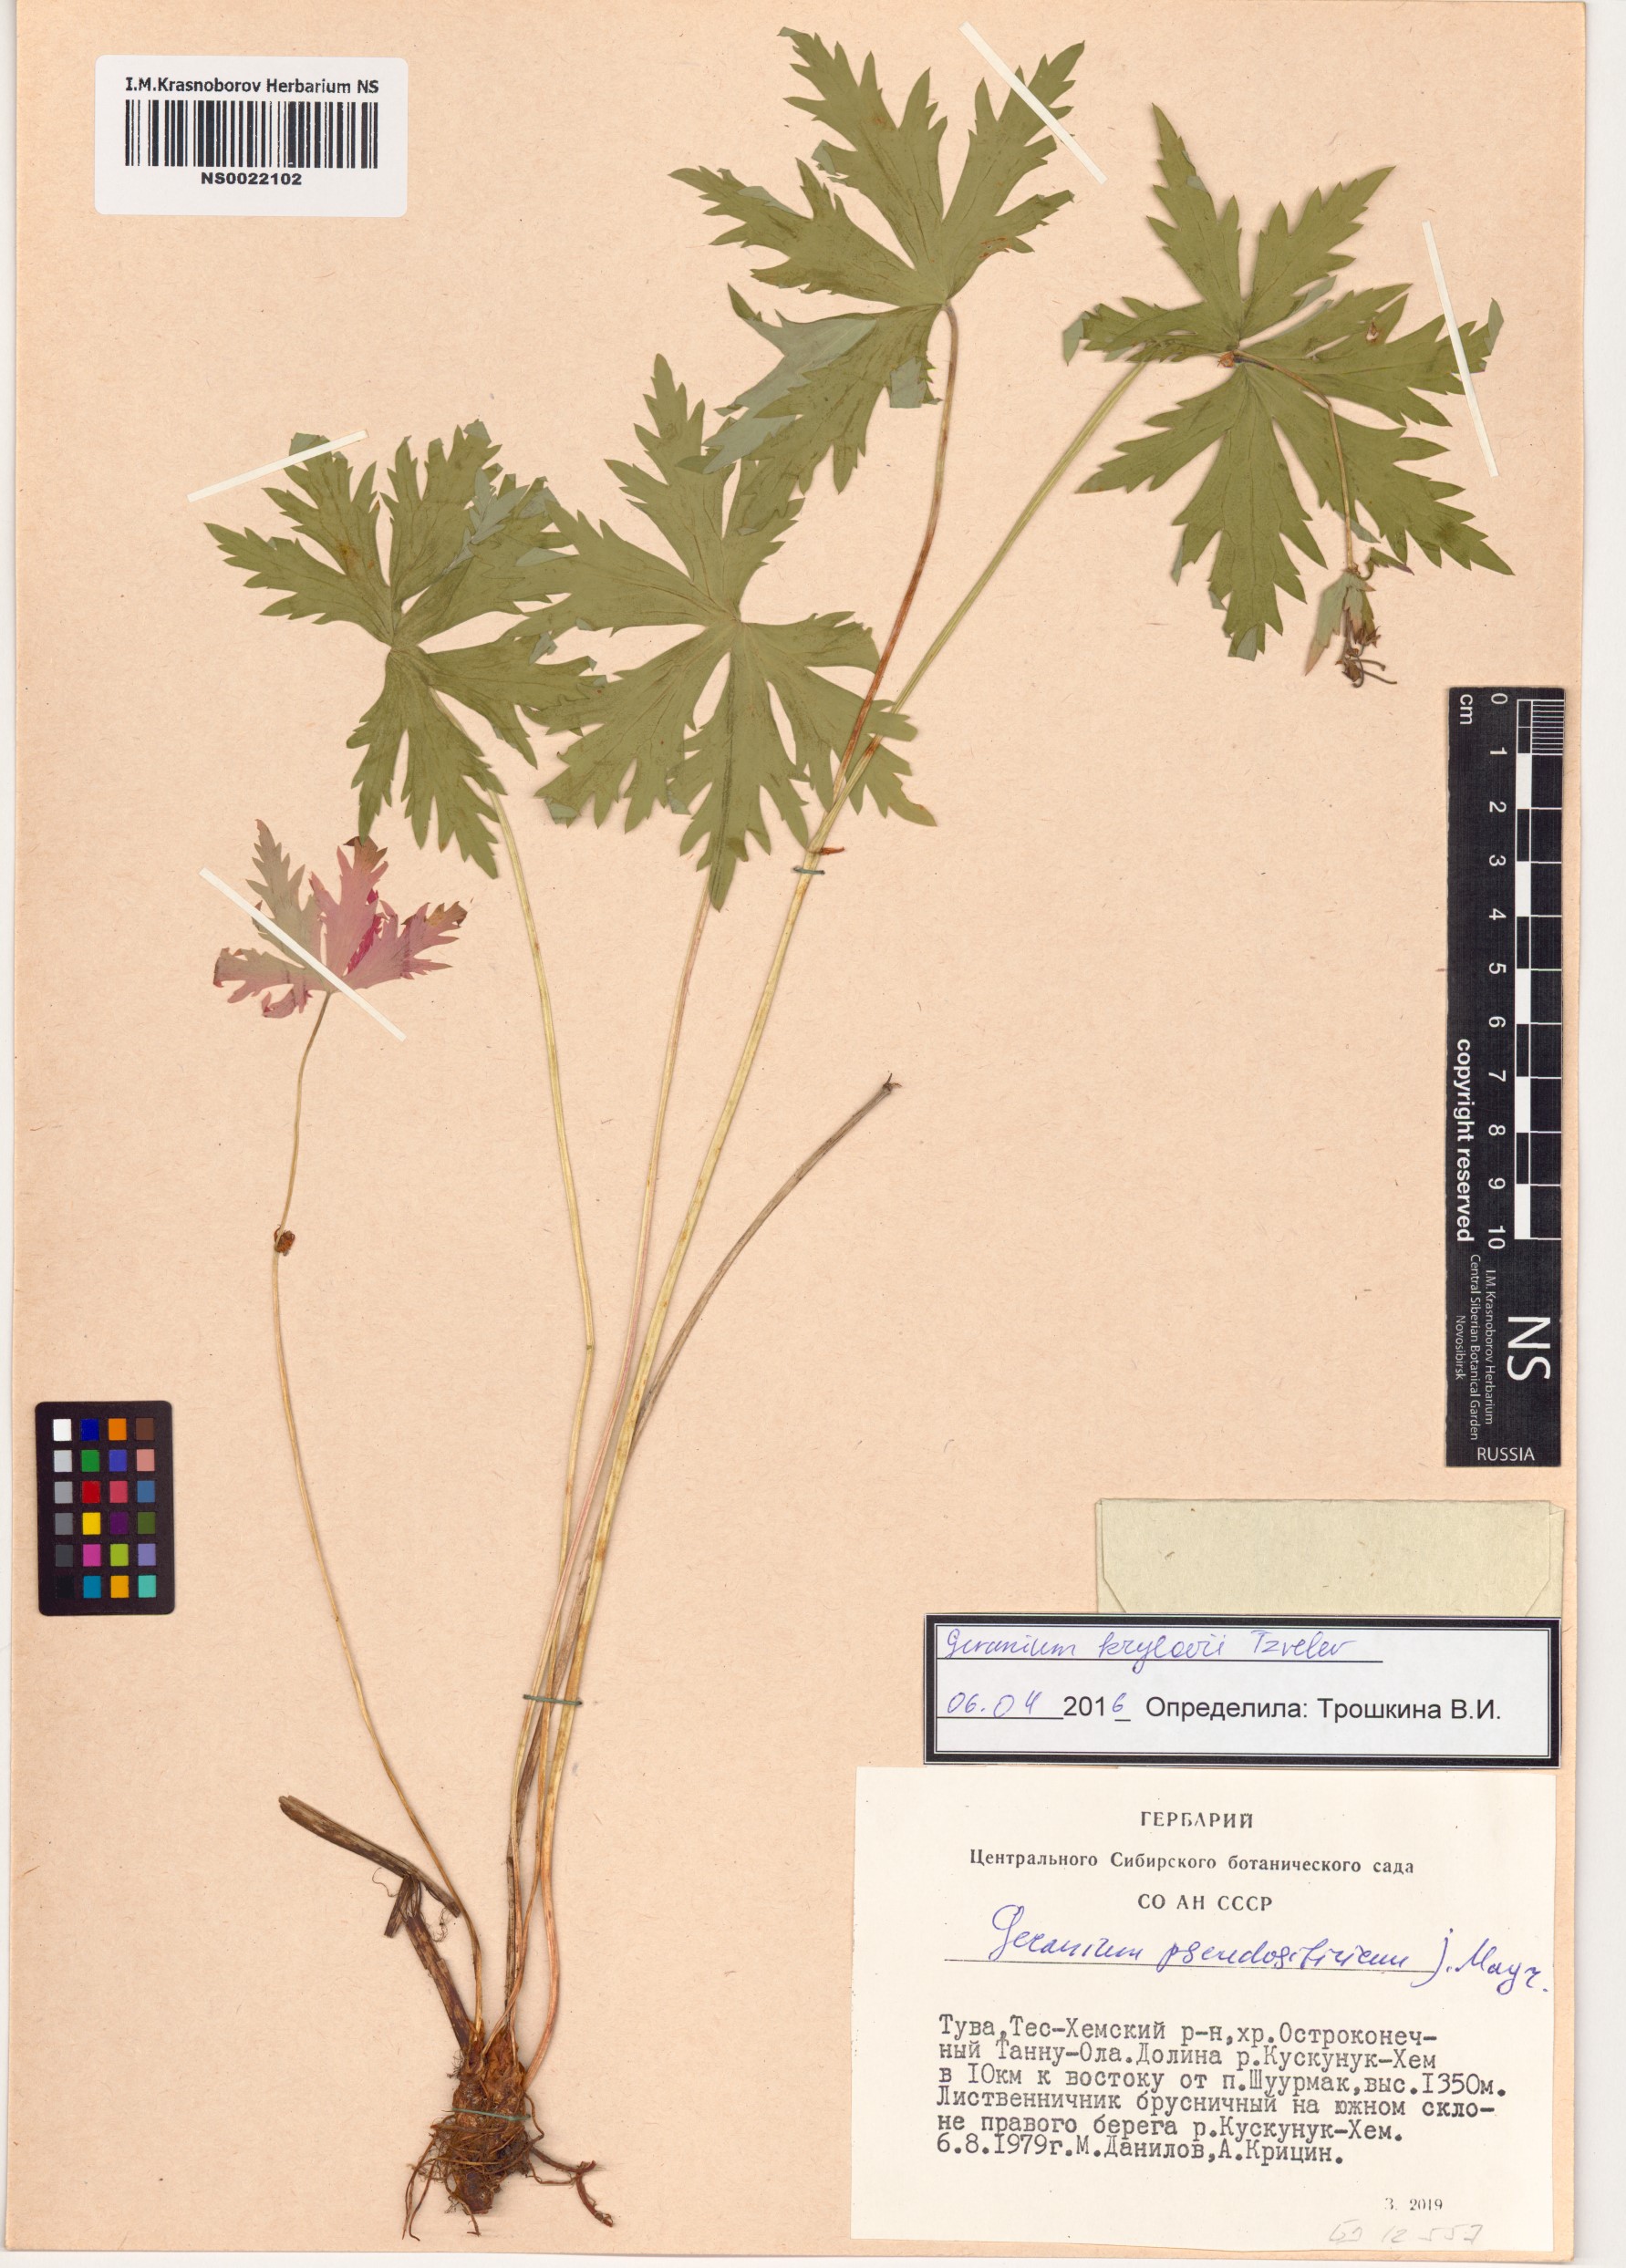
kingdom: Plantae
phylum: Tracheophyta
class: Magnoliopsida
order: Geraniales
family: Geraniaceae
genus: Geranium
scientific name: Geranium sylvaticum
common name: Wood crane's-bill
